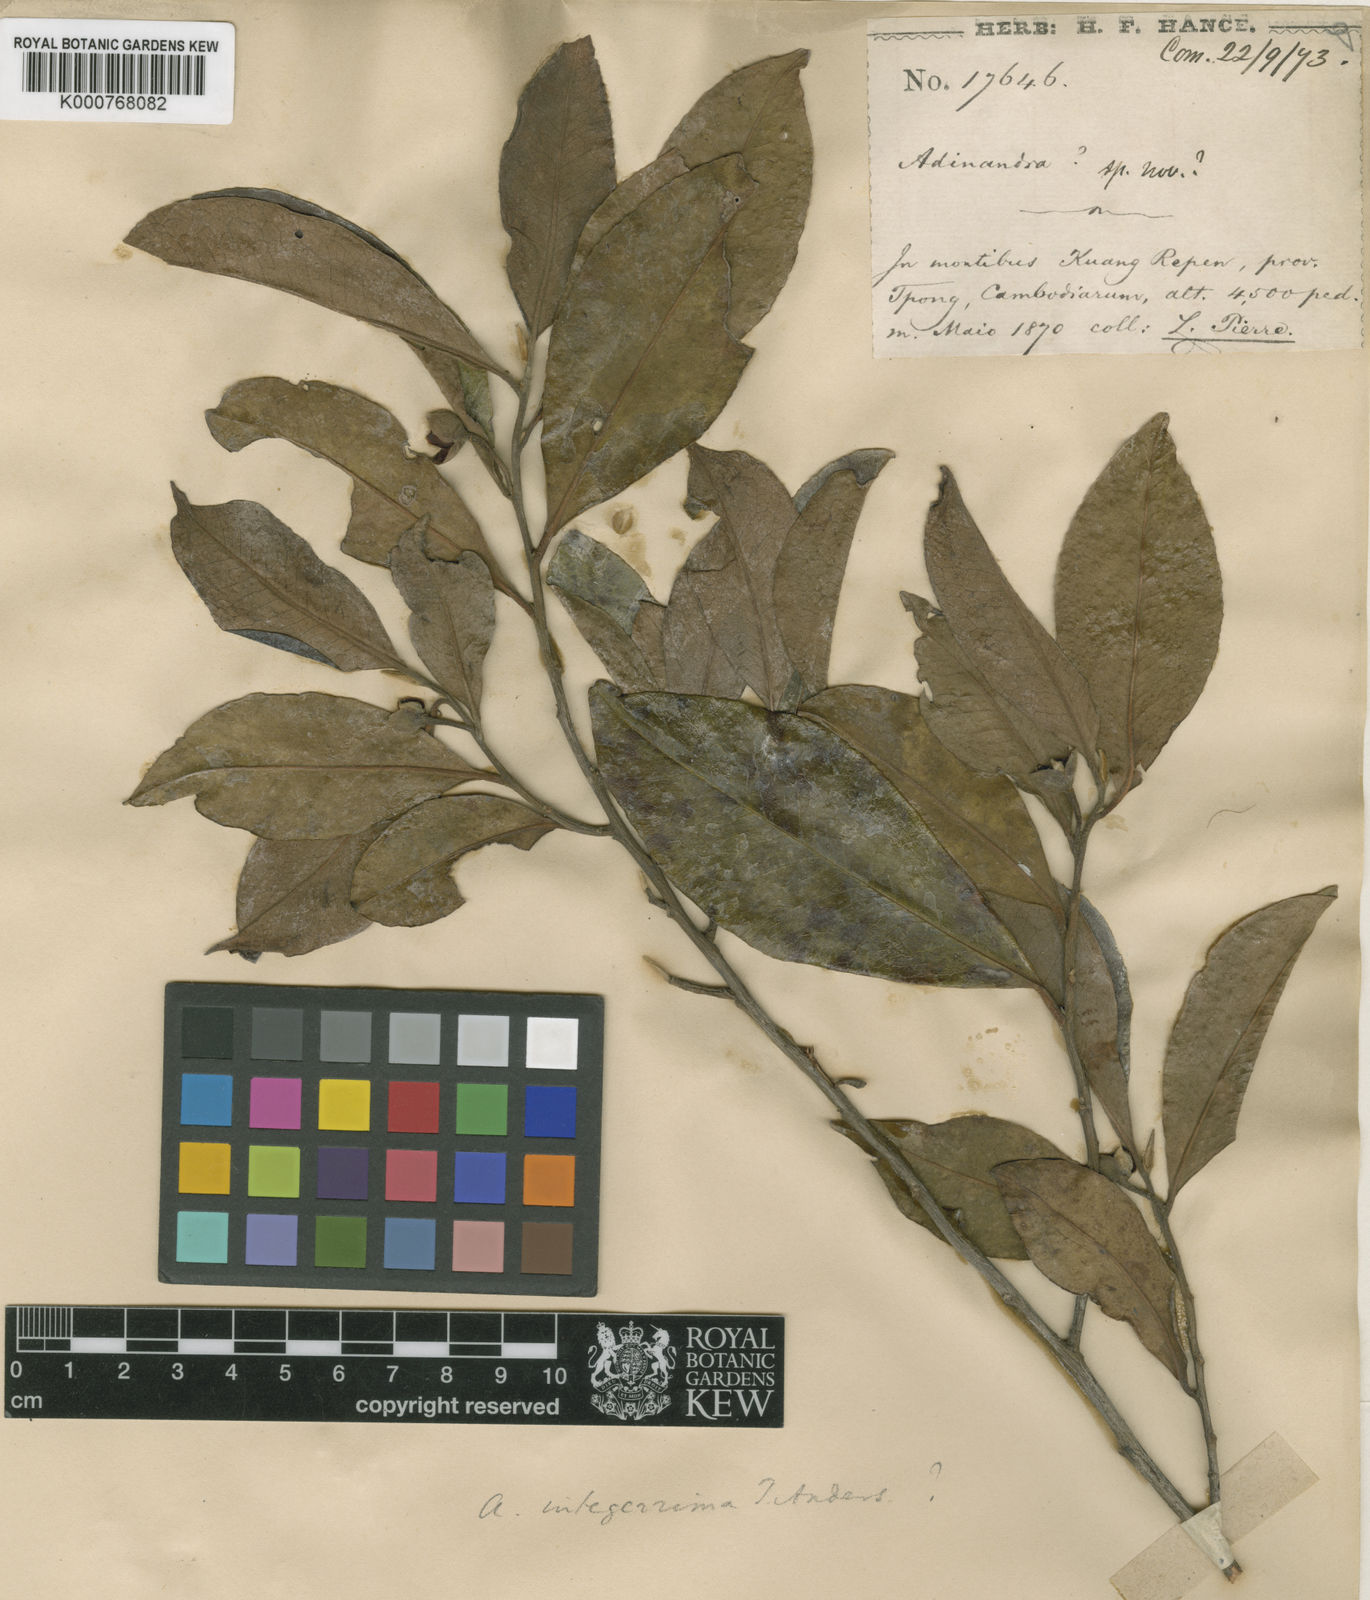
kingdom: Plantae
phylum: Tracheophyta
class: Magnoliopsida
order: Ericales
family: Pentaphylacaceae
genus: Adinandra
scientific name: Adinandra integerrima
